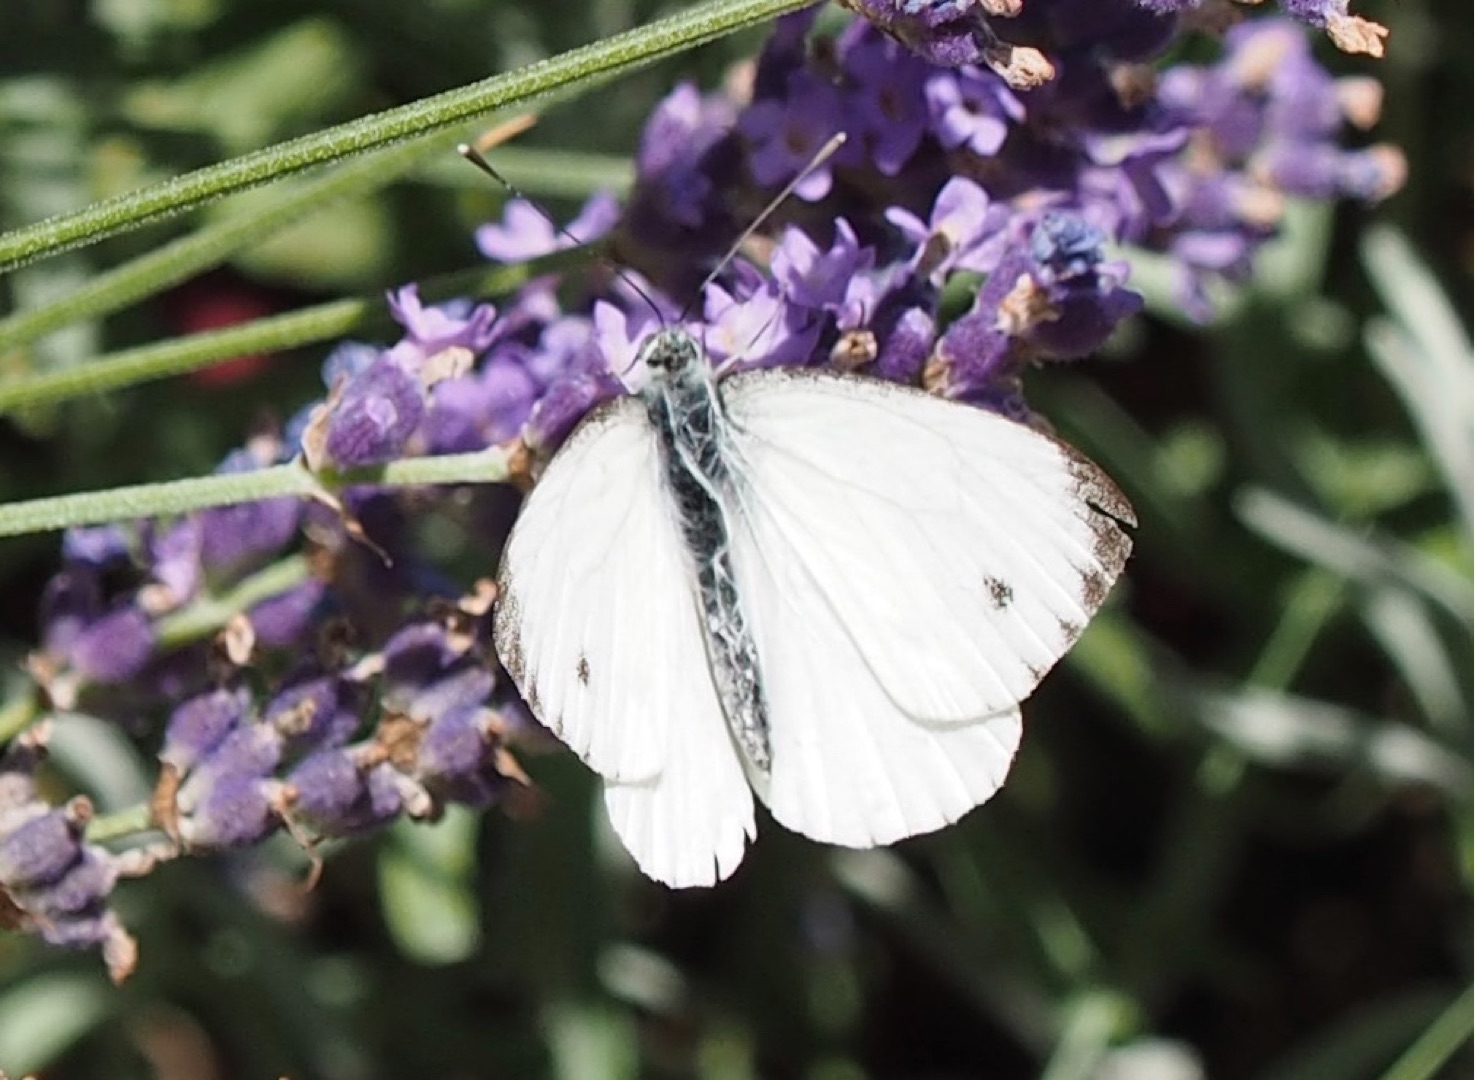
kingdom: Animalia
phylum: Arthropoda
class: Insecta
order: Lepidoptera
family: Pieridae
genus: Pieris
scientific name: Pieris napi
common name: Grønåret kålsommerfugl
